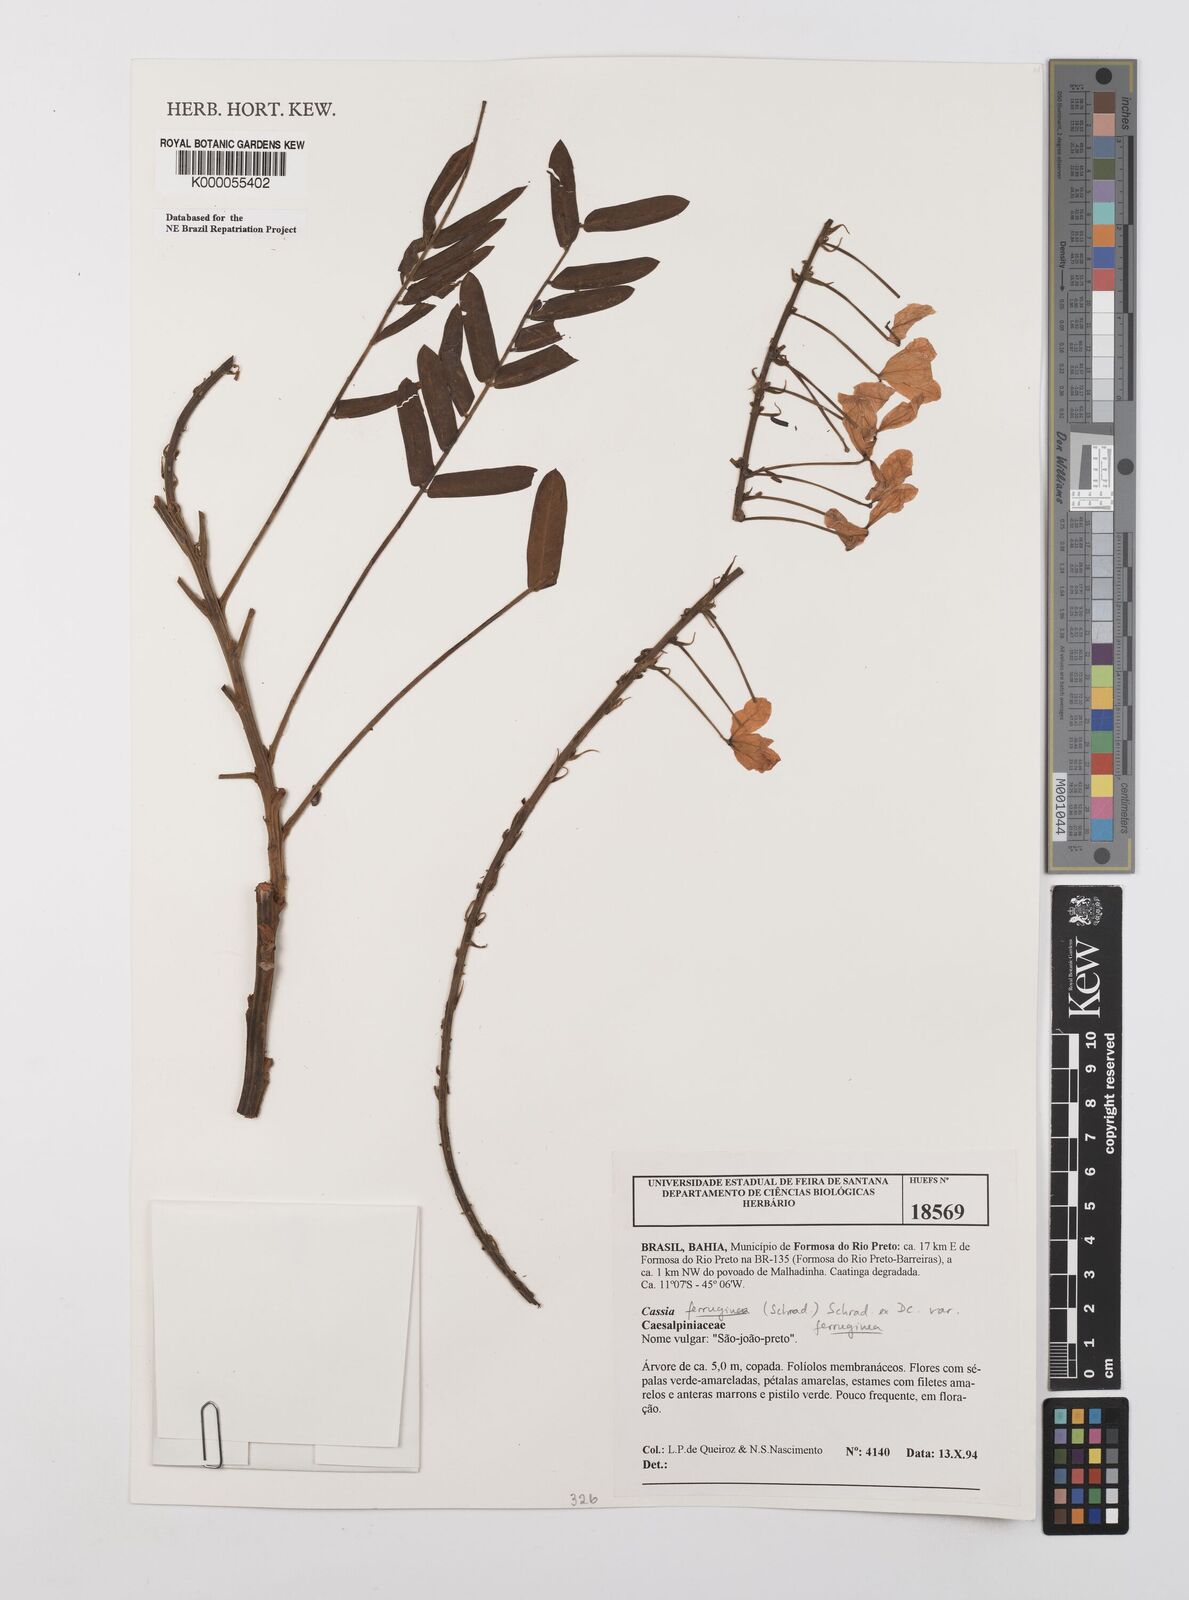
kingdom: Plantae
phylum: Tracheophyta
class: Magnoliopsida
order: Fabales
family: Fabaceae
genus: Cassia
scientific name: Cassia ferruginea
